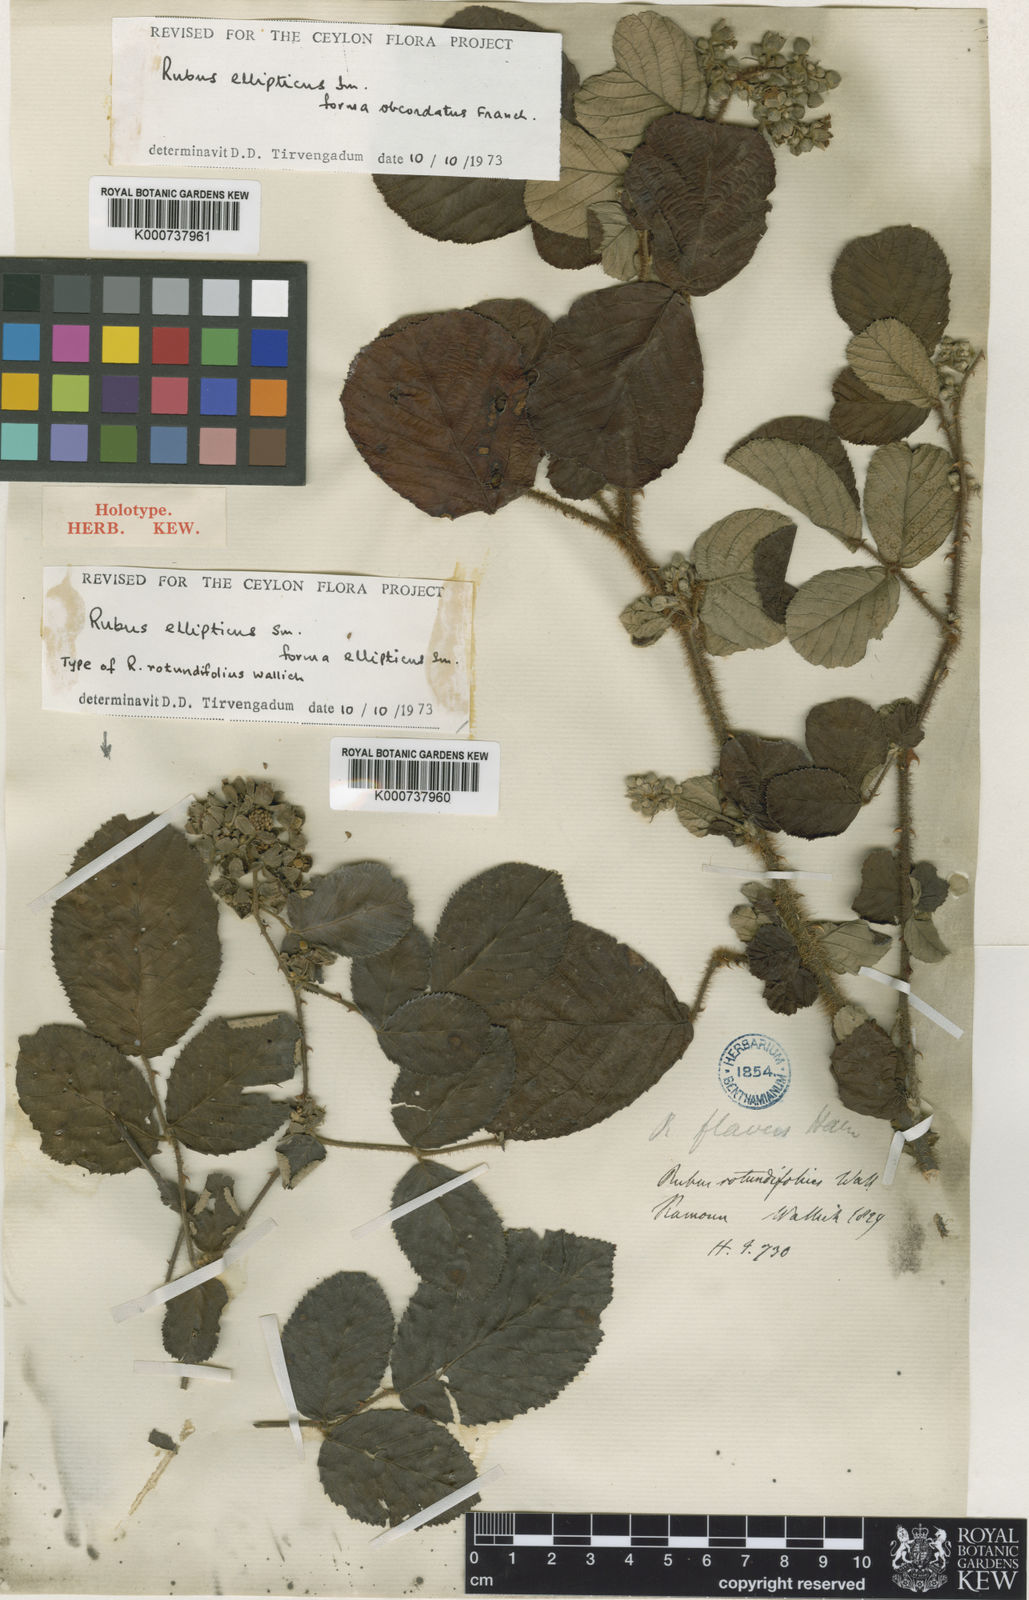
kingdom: Plantae
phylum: Tracheophyta
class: Magnoliopsida
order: Rosales
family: Rosaceae
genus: Rubus
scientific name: Rubus ellipticus
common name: Cheeseberry
